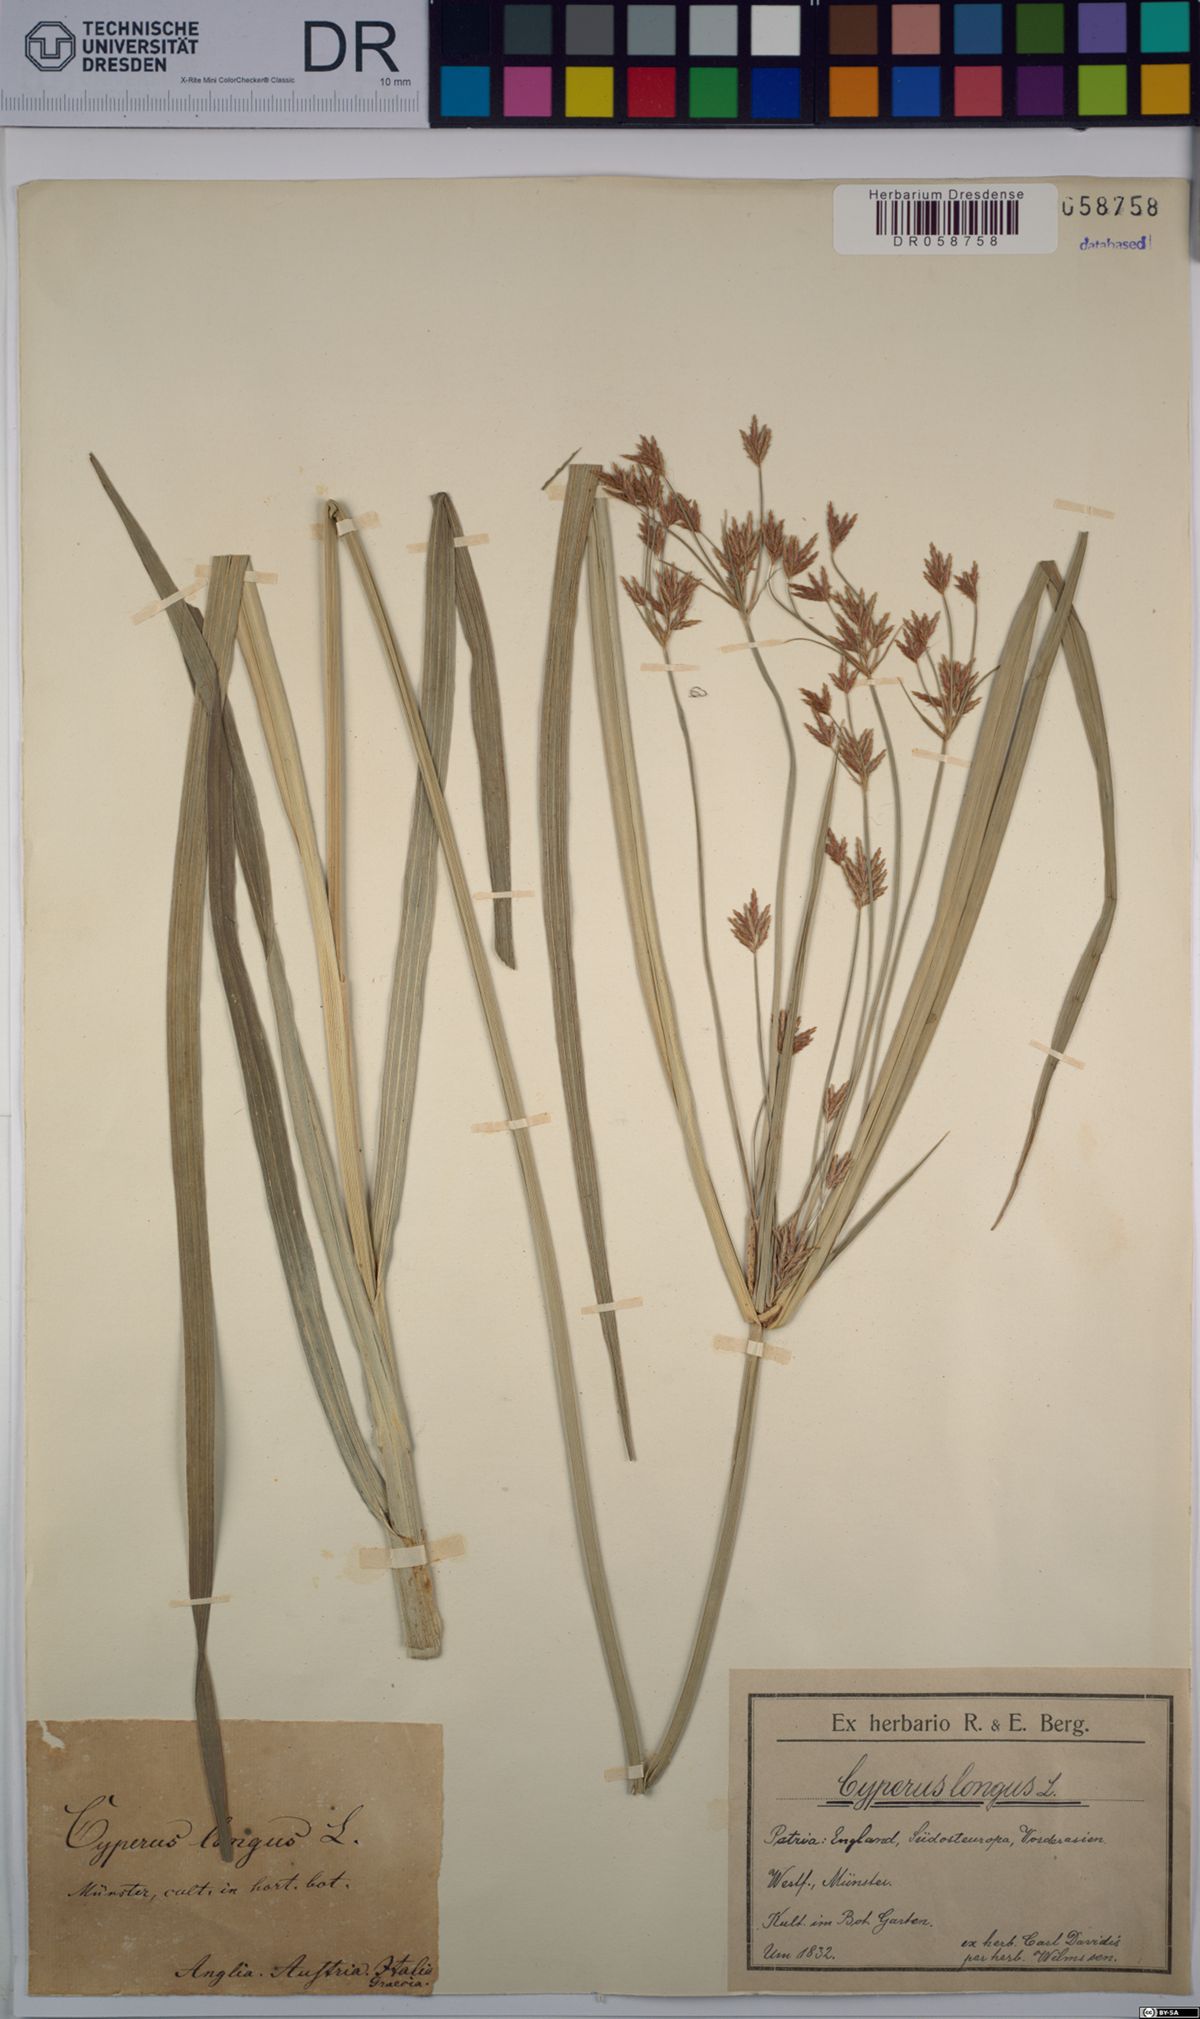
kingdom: Plantae
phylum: Tracheophyta
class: Liliopsida
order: Poales
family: Cyperaceae
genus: Cyperus
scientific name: Cyperus longus
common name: Galingale
